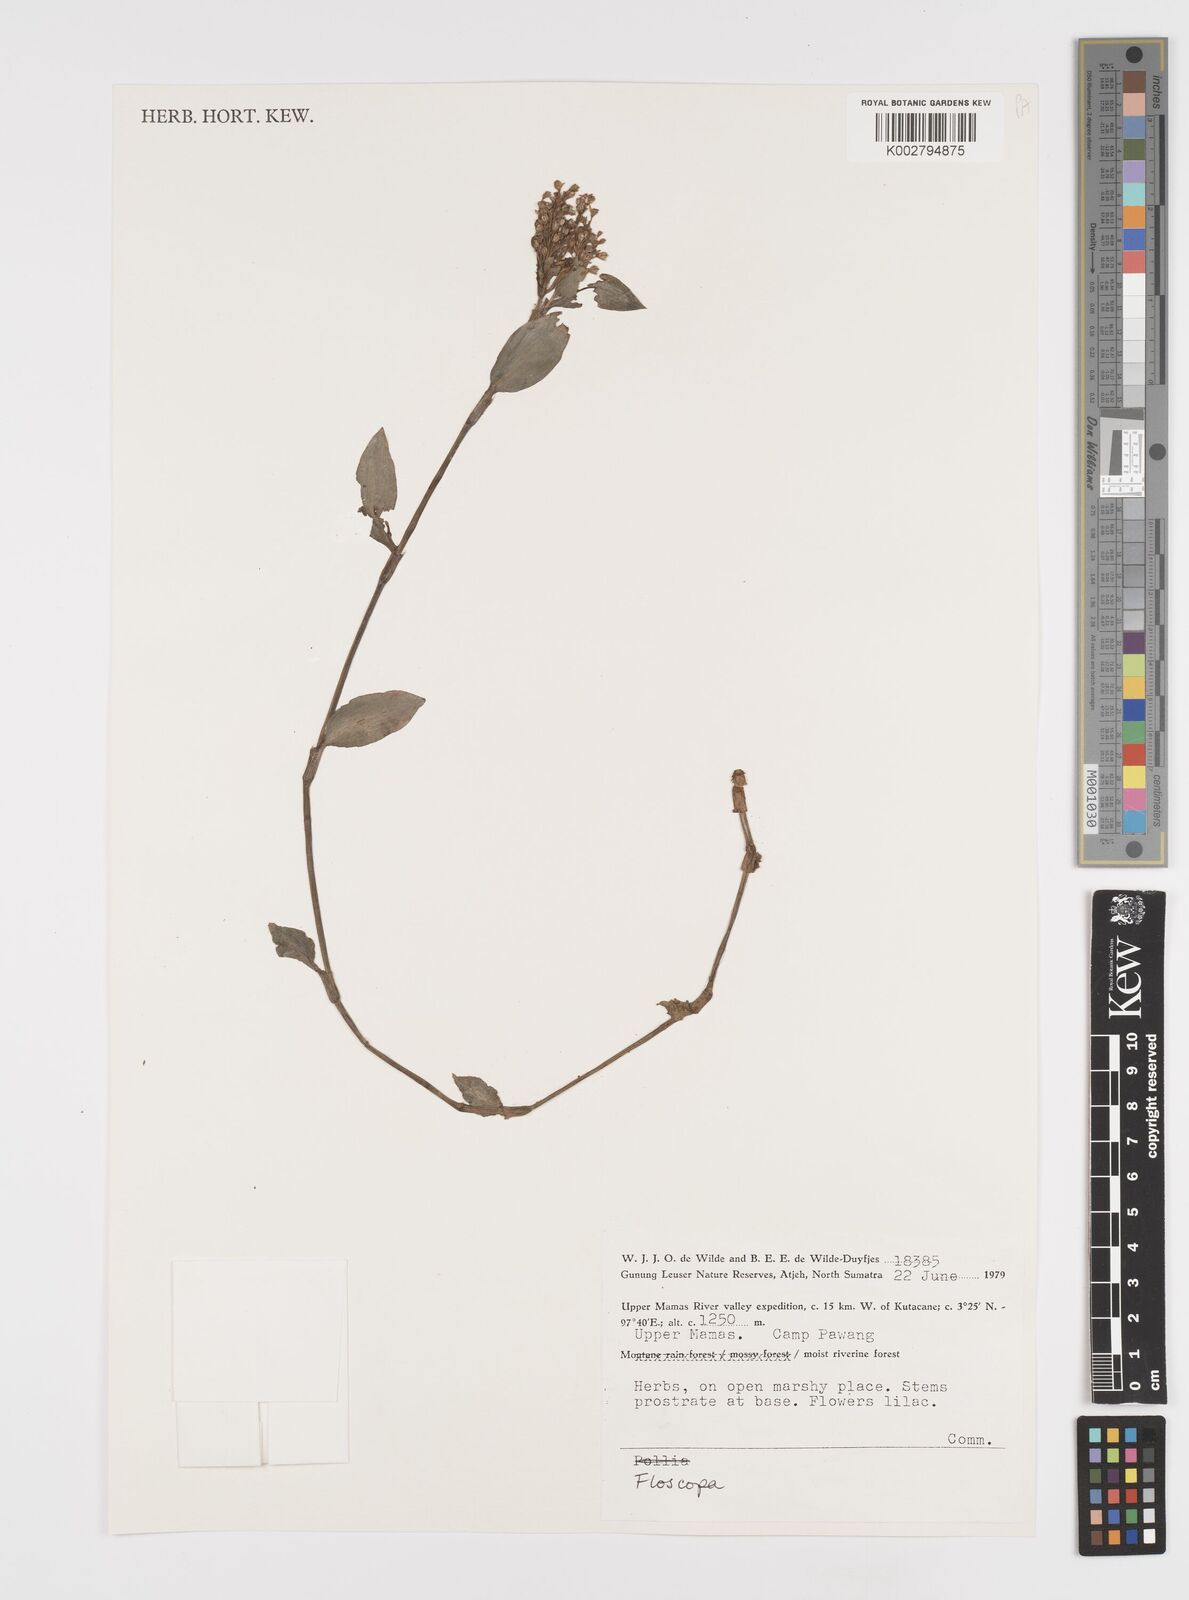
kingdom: Plantae
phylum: Tracheophyta
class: Liliopsida
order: Commelinales
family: Commelinaceae
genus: Floscopa
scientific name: Floscopa scandens
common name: Climbing flower cup
